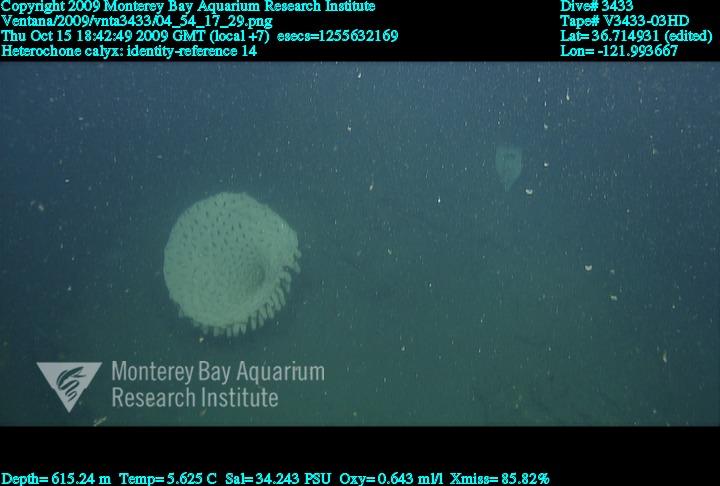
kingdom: Animalia
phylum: Porifera
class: Hexactinellida
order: Sceptrulophora
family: Aphrocallistidae
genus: Heterochone
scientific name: Heterochone calyx
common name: Fingered goblet glass sponge
